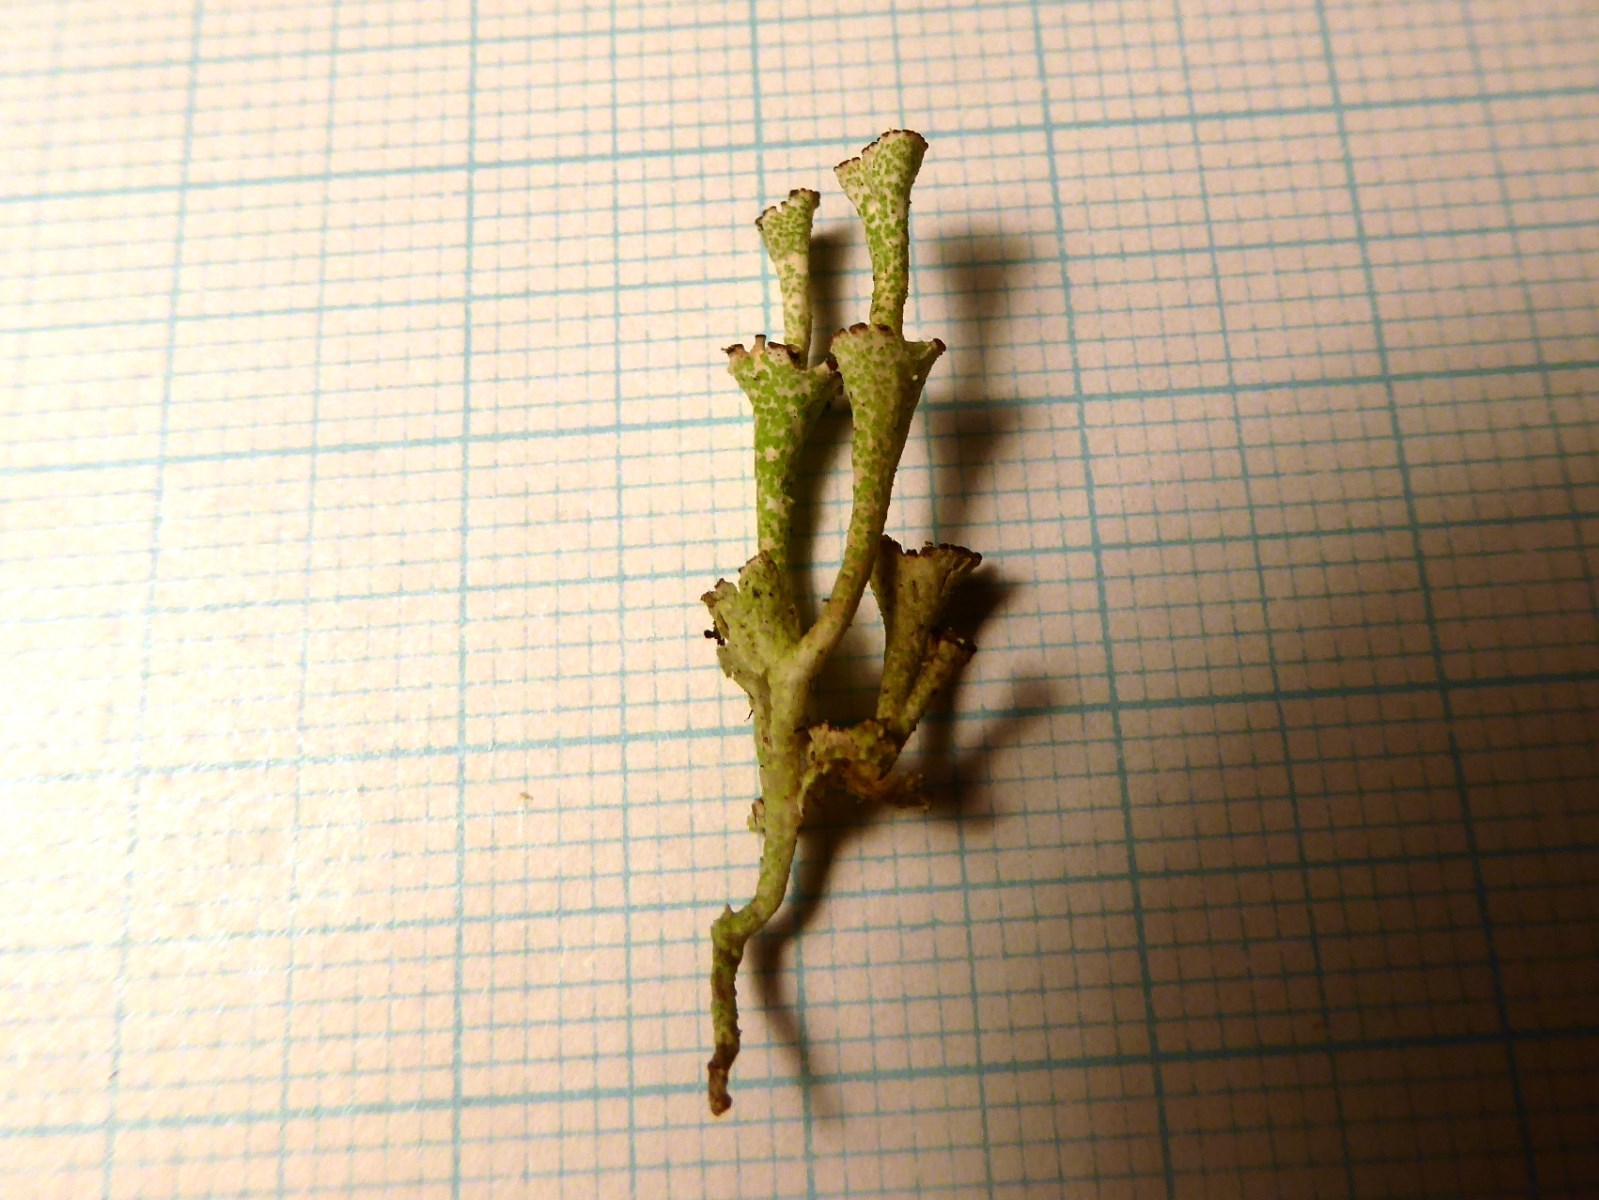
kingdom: Fungi
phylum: Ascomycota
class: Lecanoromycetes
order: Lecanorales
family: Cladoniaceae
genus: Cladonia
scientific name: Cladonia cervicornis
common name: etage-bægerlav
